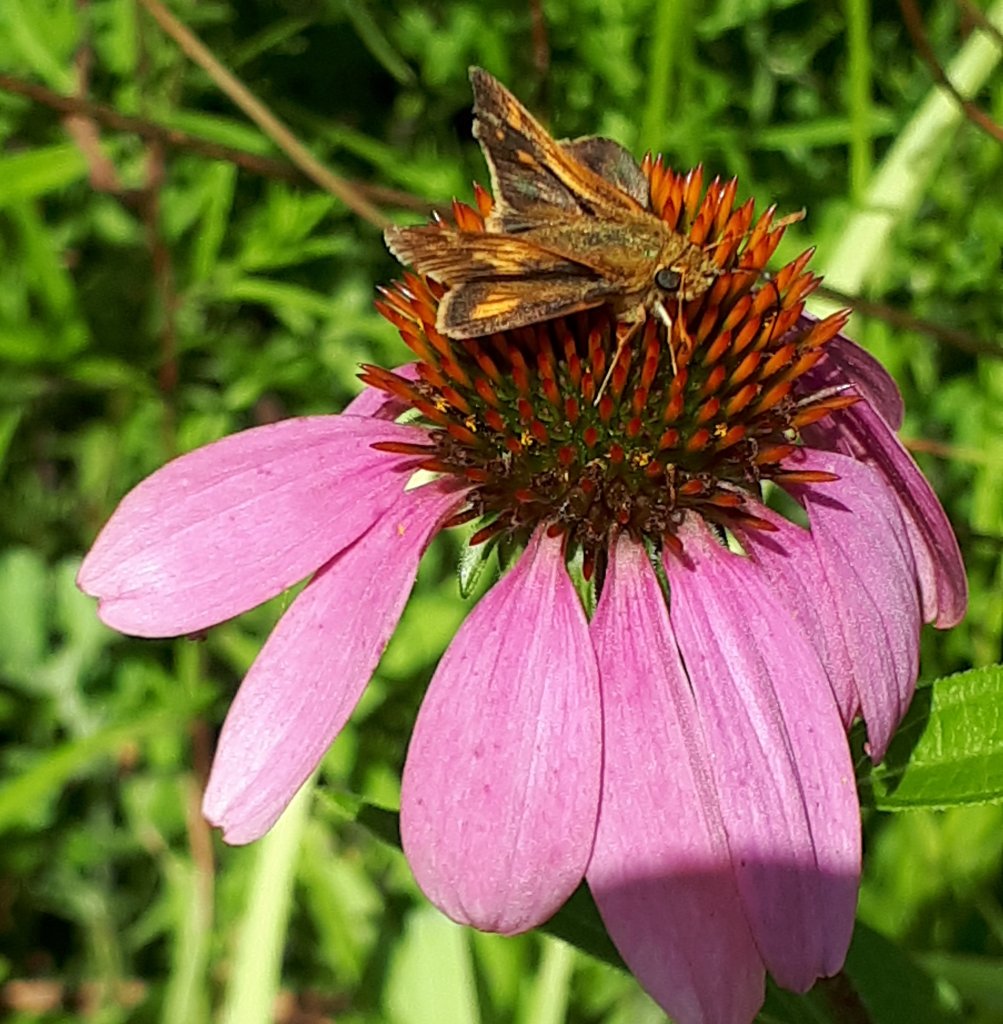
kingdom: Animalia
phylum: Arthropoda
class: Insecta
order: Lepidoptera
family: Hesperiidae
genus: Polites
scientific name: Polites coras
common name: Peck's Skipper
